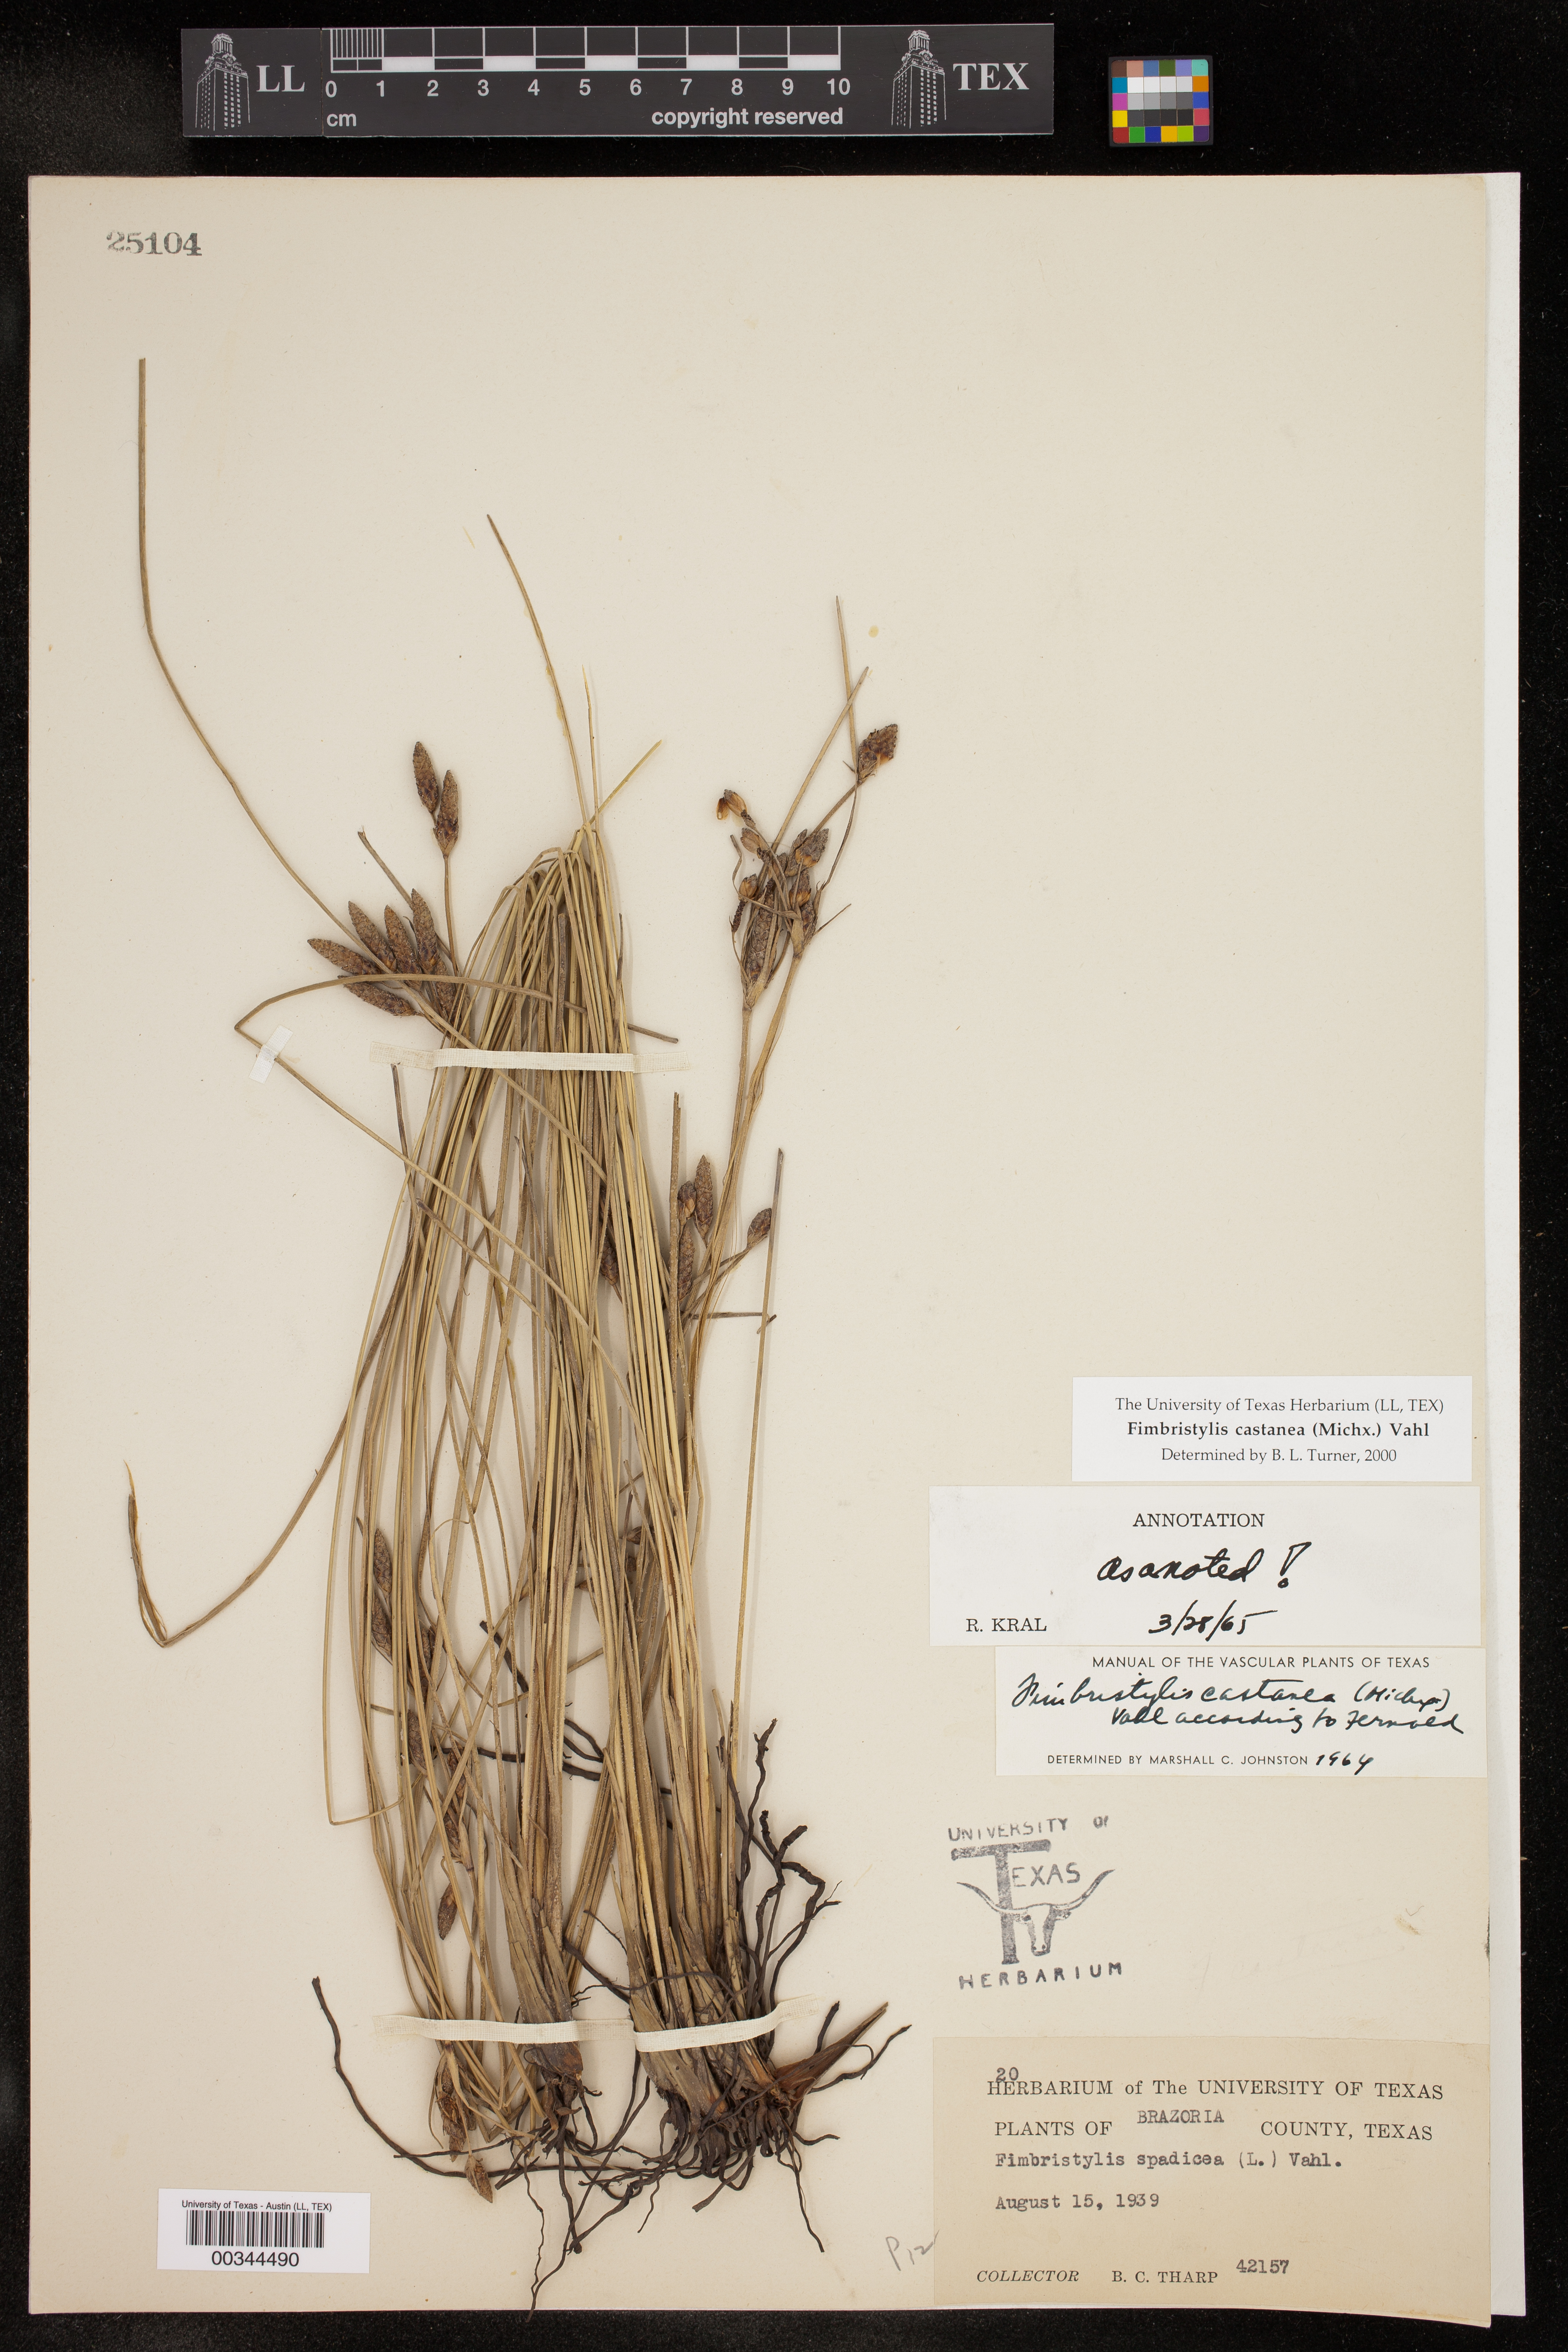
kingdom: Plantae
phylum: Tracheophyta
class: Liliopsida
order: Poales
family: Cyperaceae
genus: Fimbristylis
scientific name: Fimbristylis spadicea
